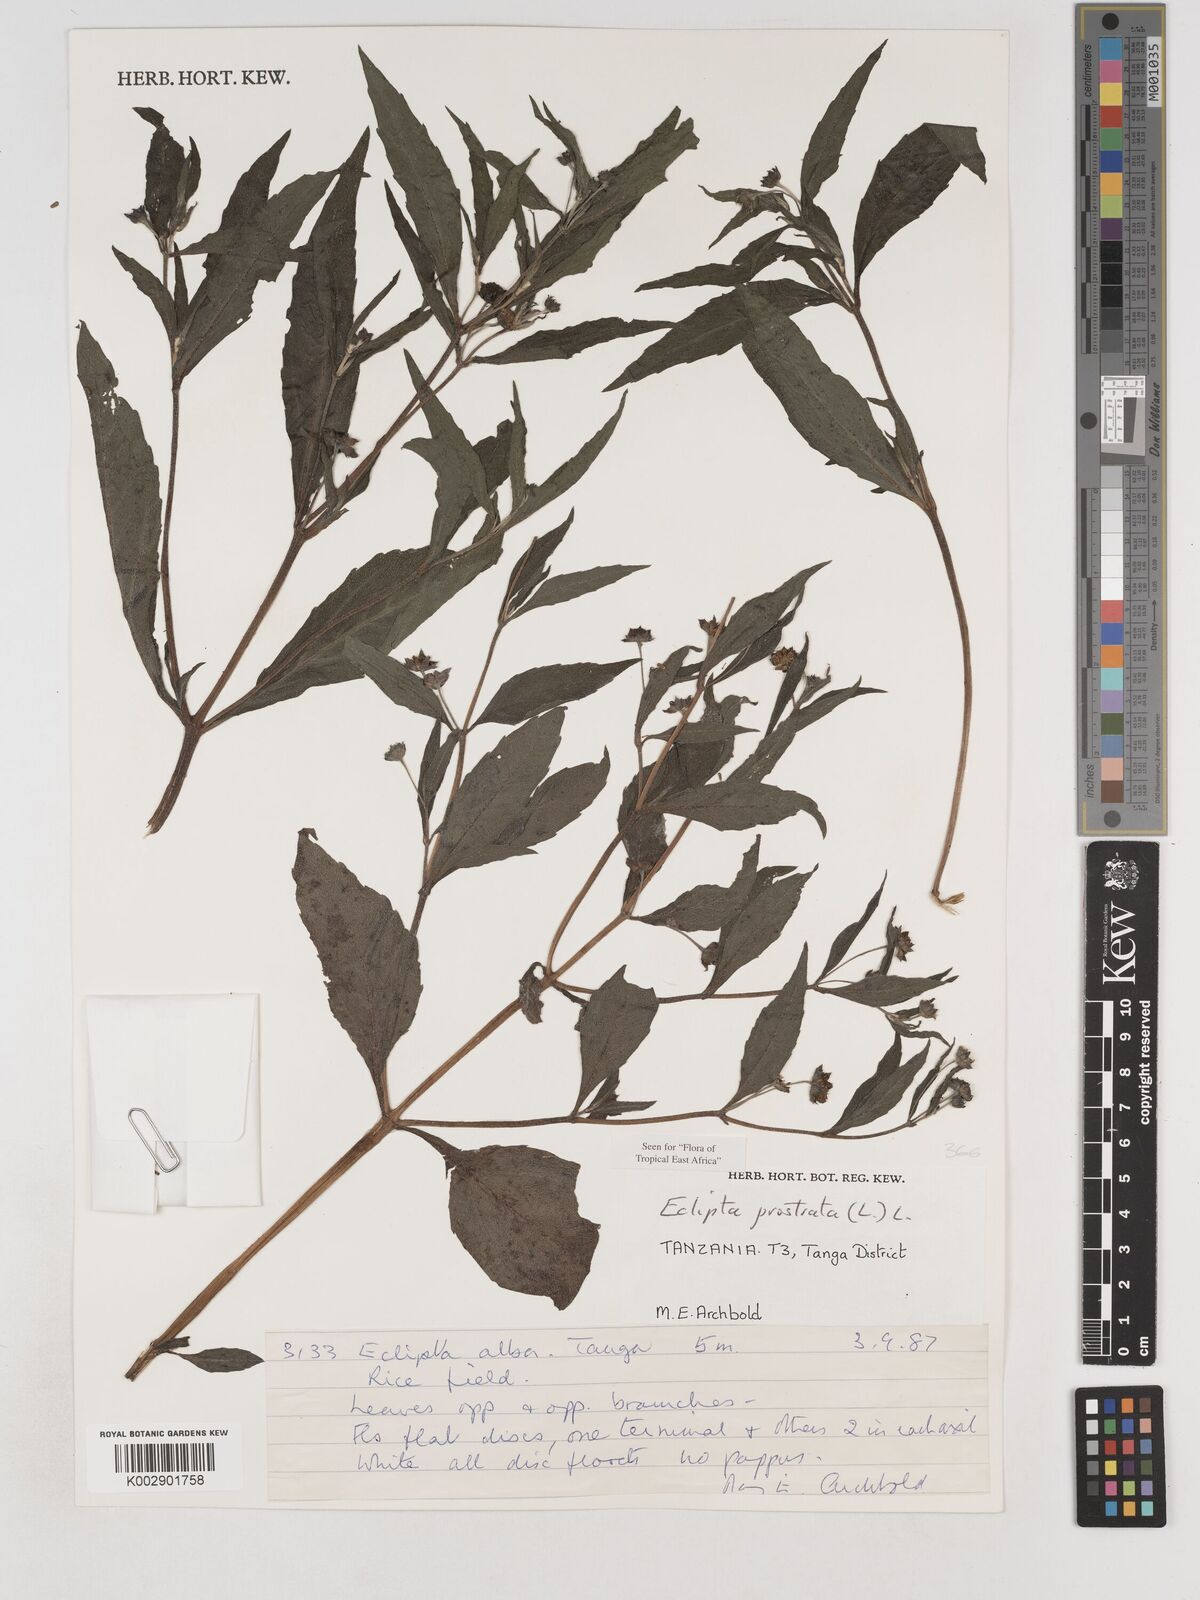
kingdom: Plantae
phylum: Tracheophyta
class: Magnoliopsida
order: Asterales
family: Asteraceae
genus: Eclipta
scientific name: Eclipta alba
